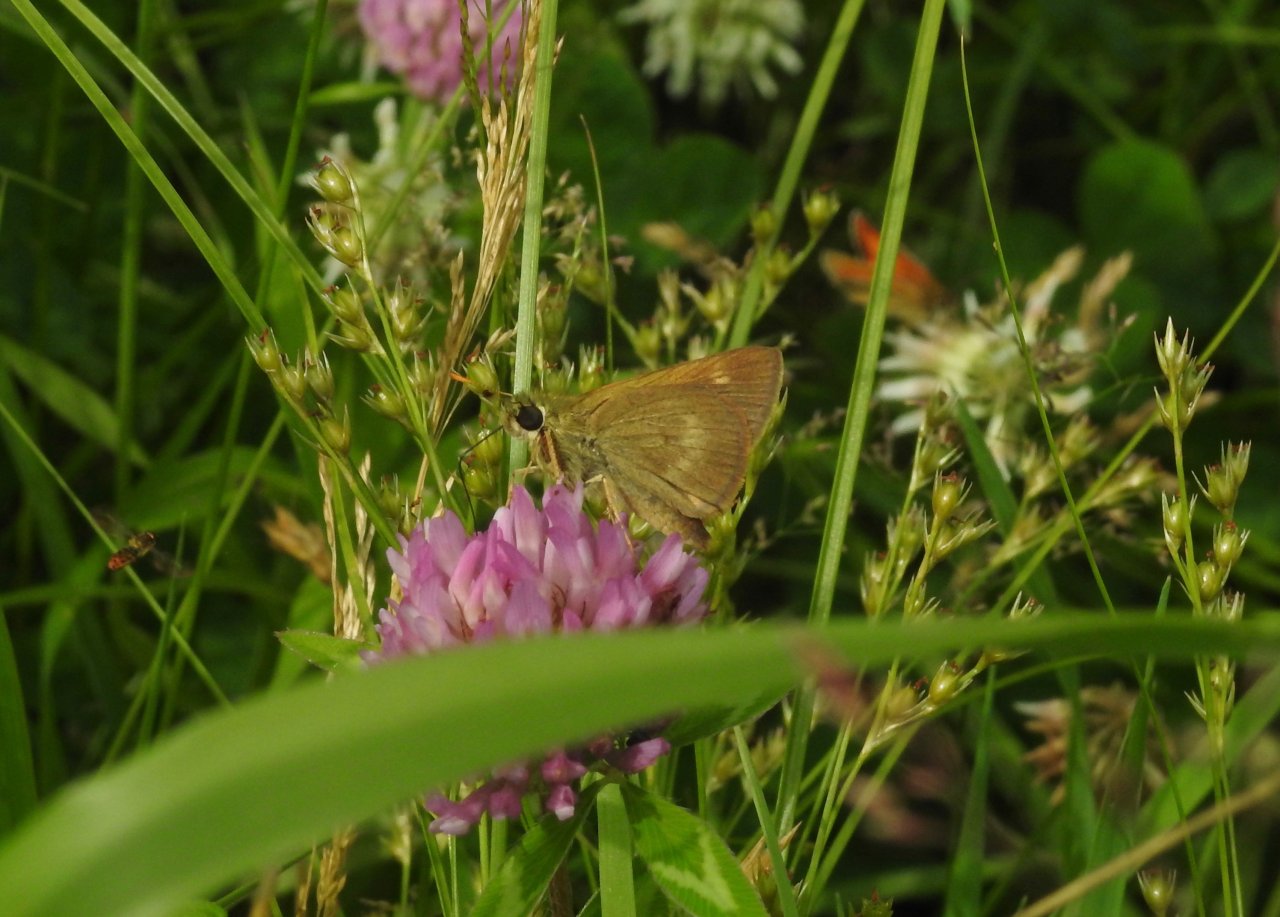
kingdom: Animalia
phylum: Arthropoda
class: Insecta
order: Lepidoptera
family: Hesperiidae
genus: Polites
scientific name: Polites egeremet
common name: Northern Broken-Dash
